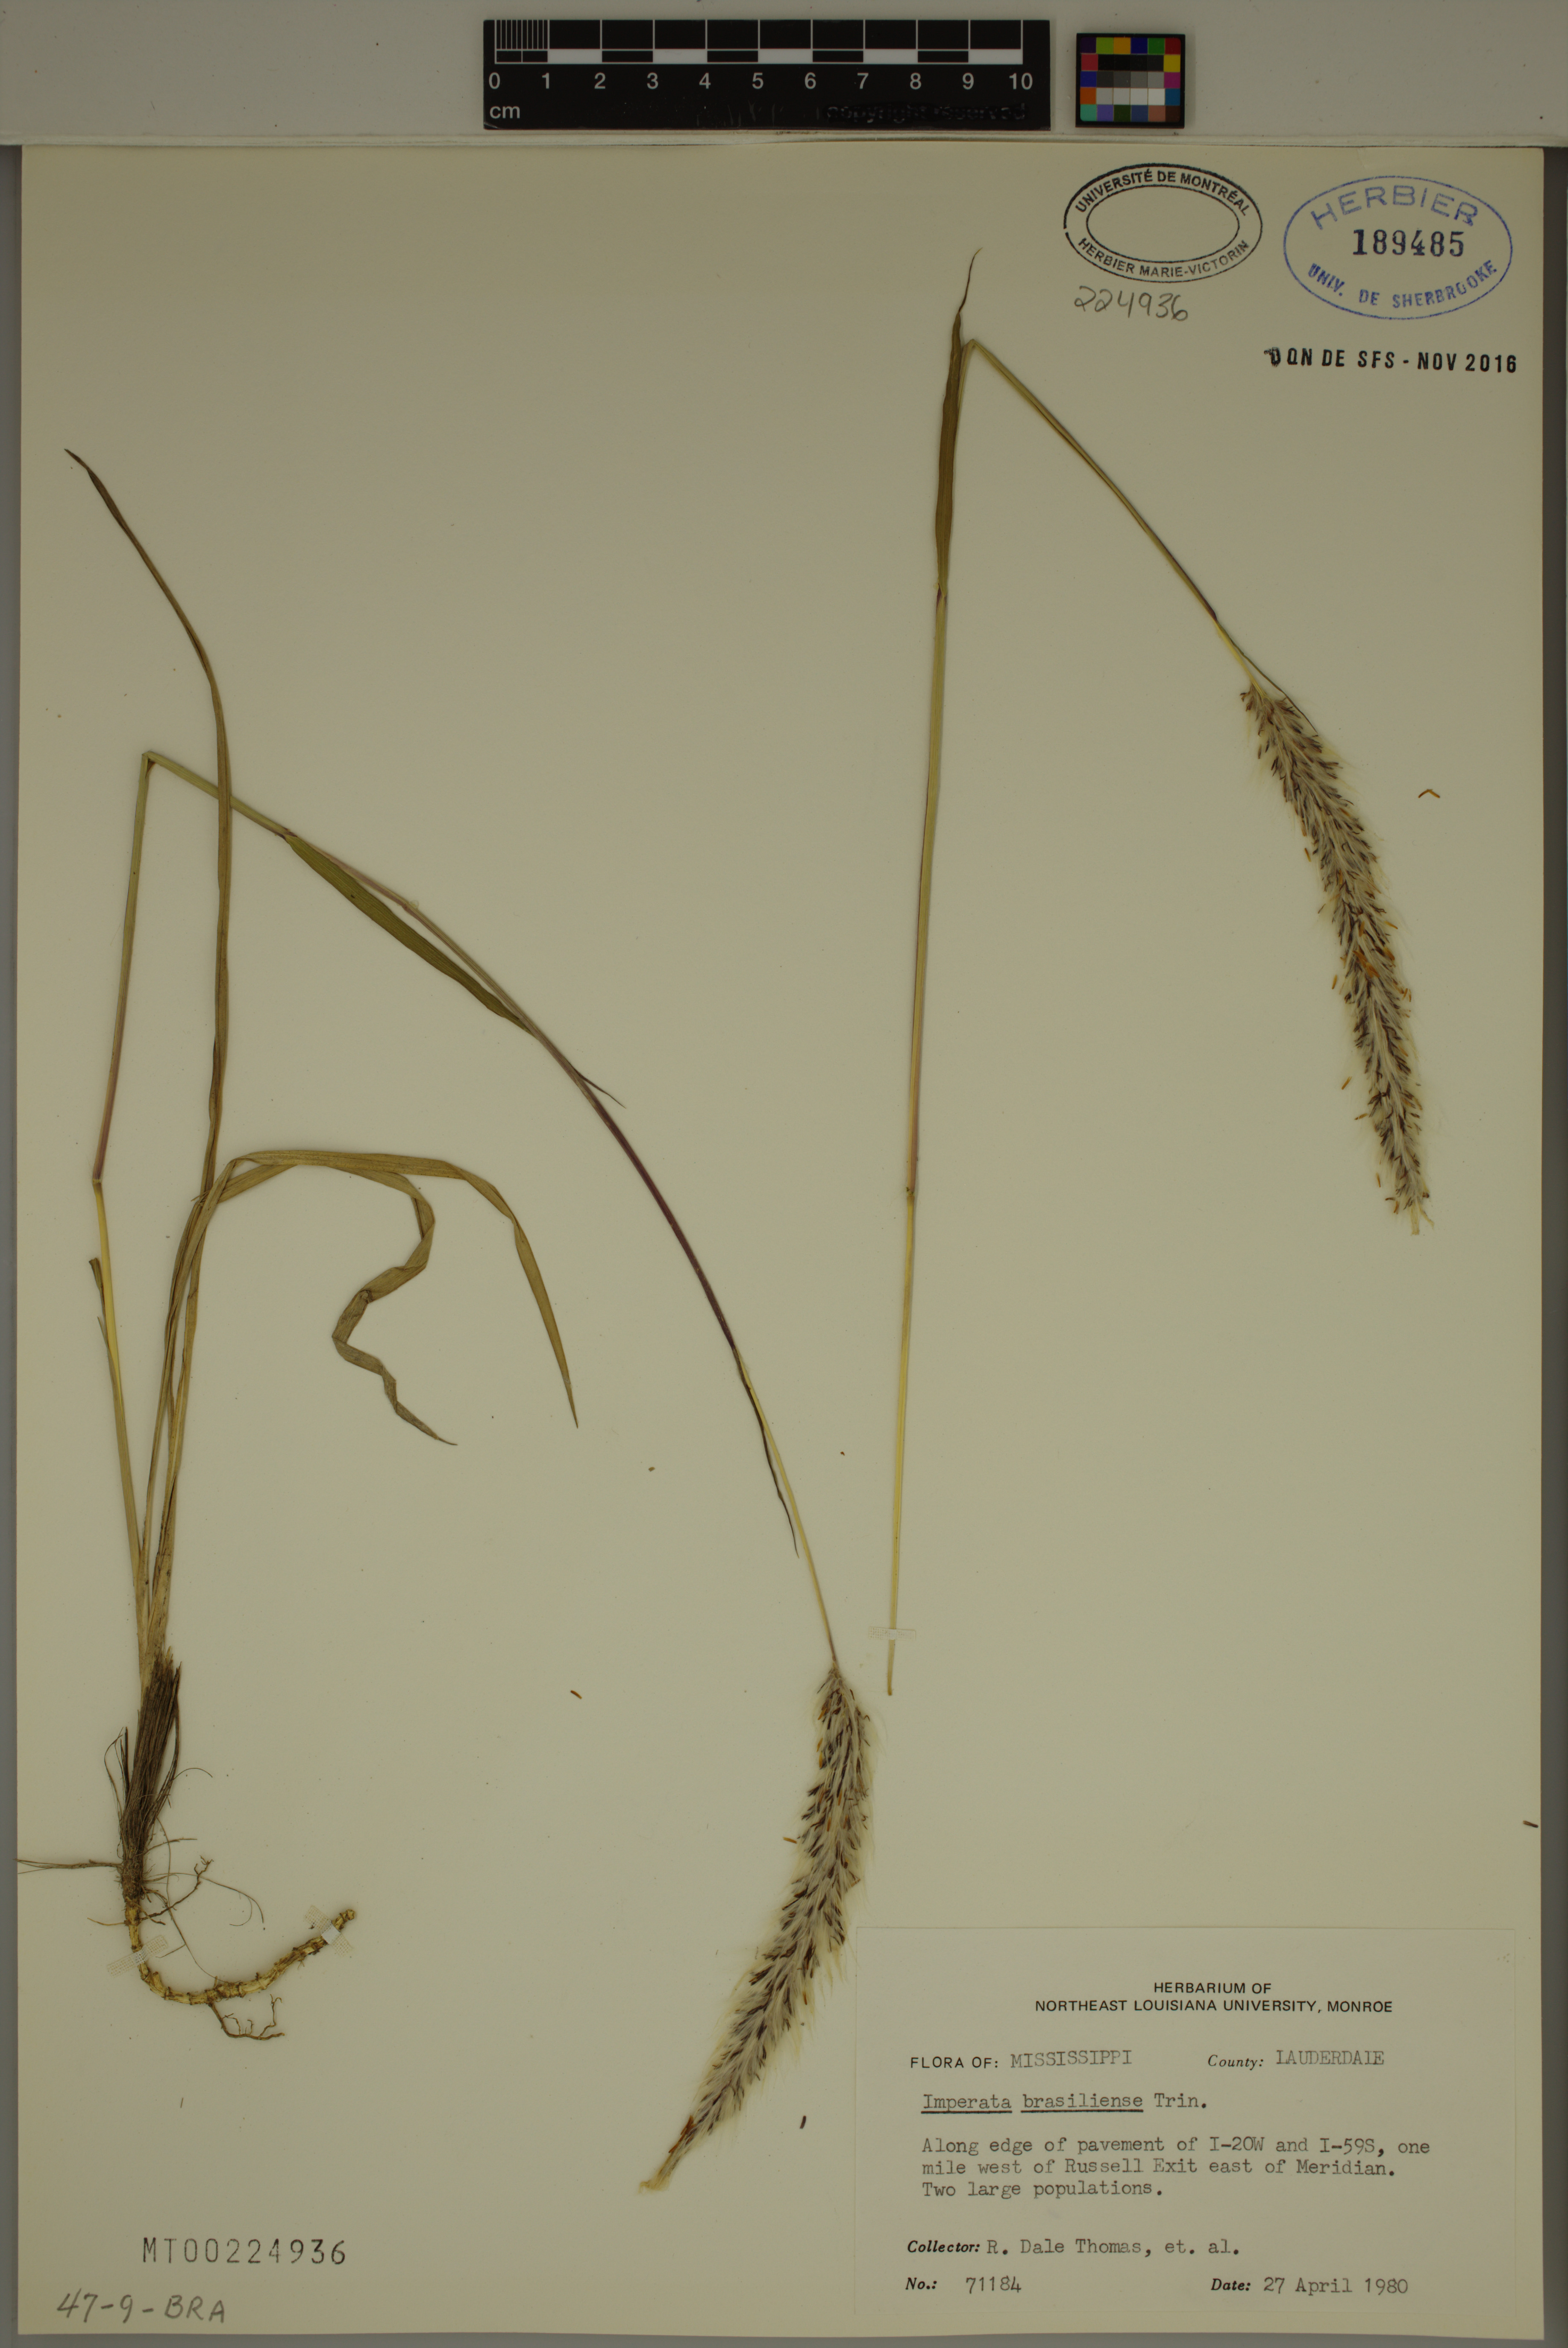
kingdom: Plantae
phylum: Tracheophyta
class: Liliopsida
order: Poales
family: Poaceae
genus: Imperata
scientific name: Imperata brasiliensis
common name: Brazilian satintail
